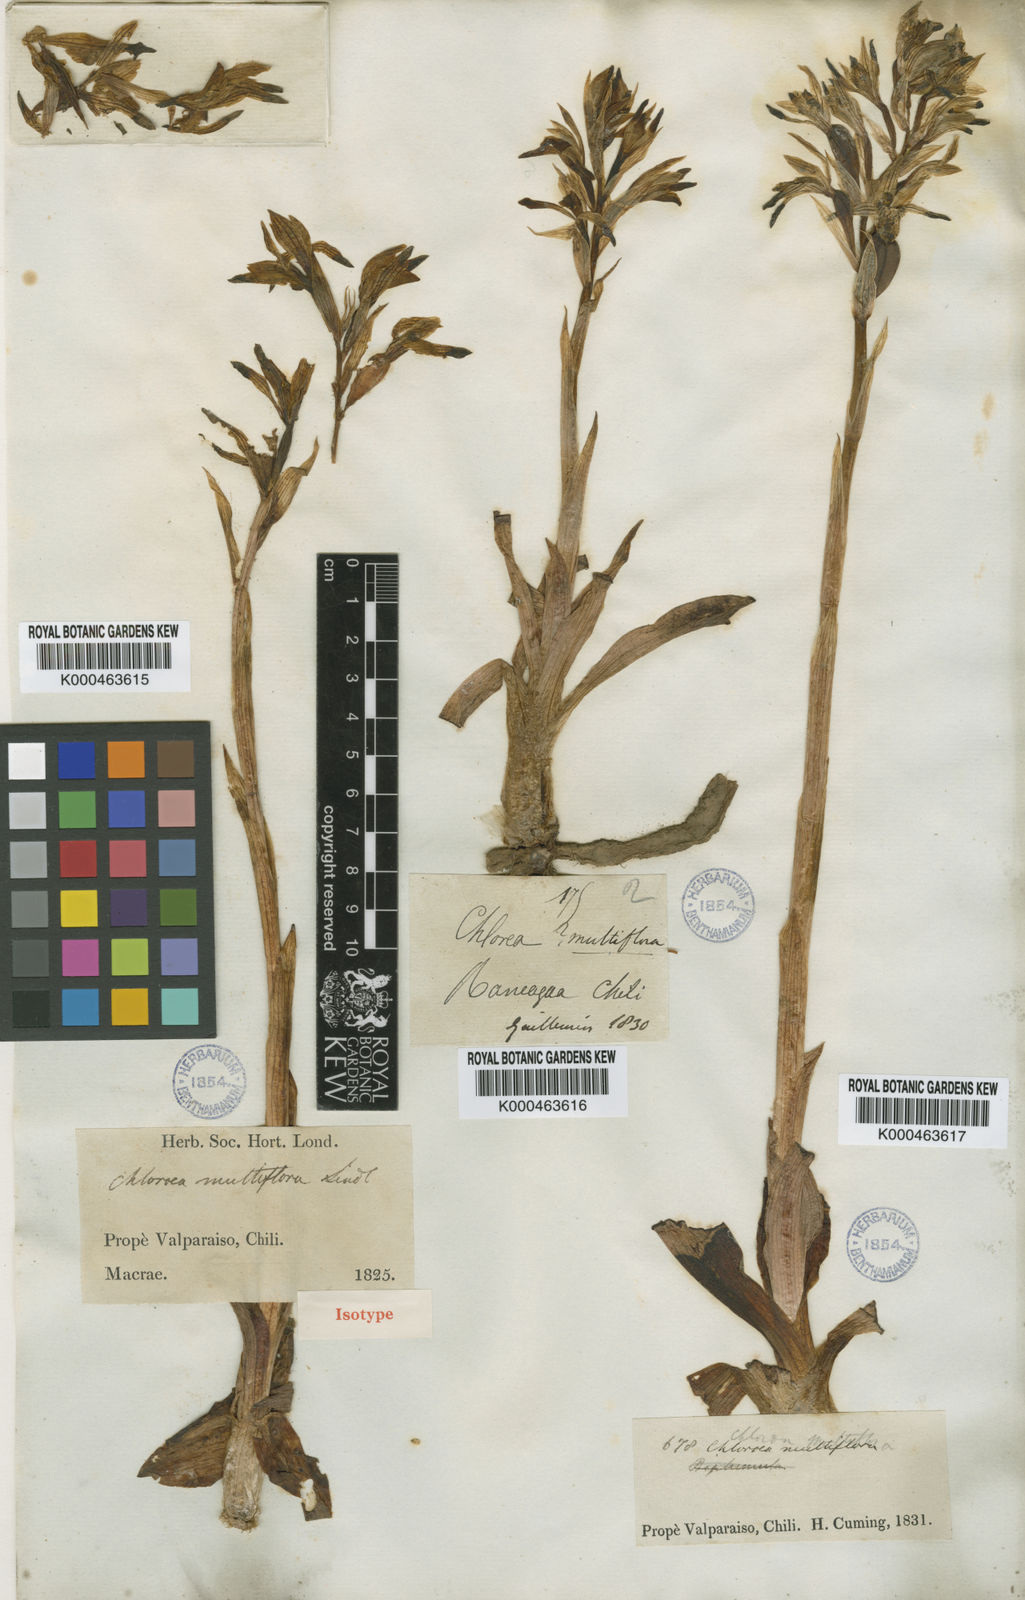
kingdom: Plantae
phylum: Tracheophyta
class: Liliopsida
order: Asparagales
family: Orchidaceae
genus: Chloraea
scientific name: Chloraea multiflora
